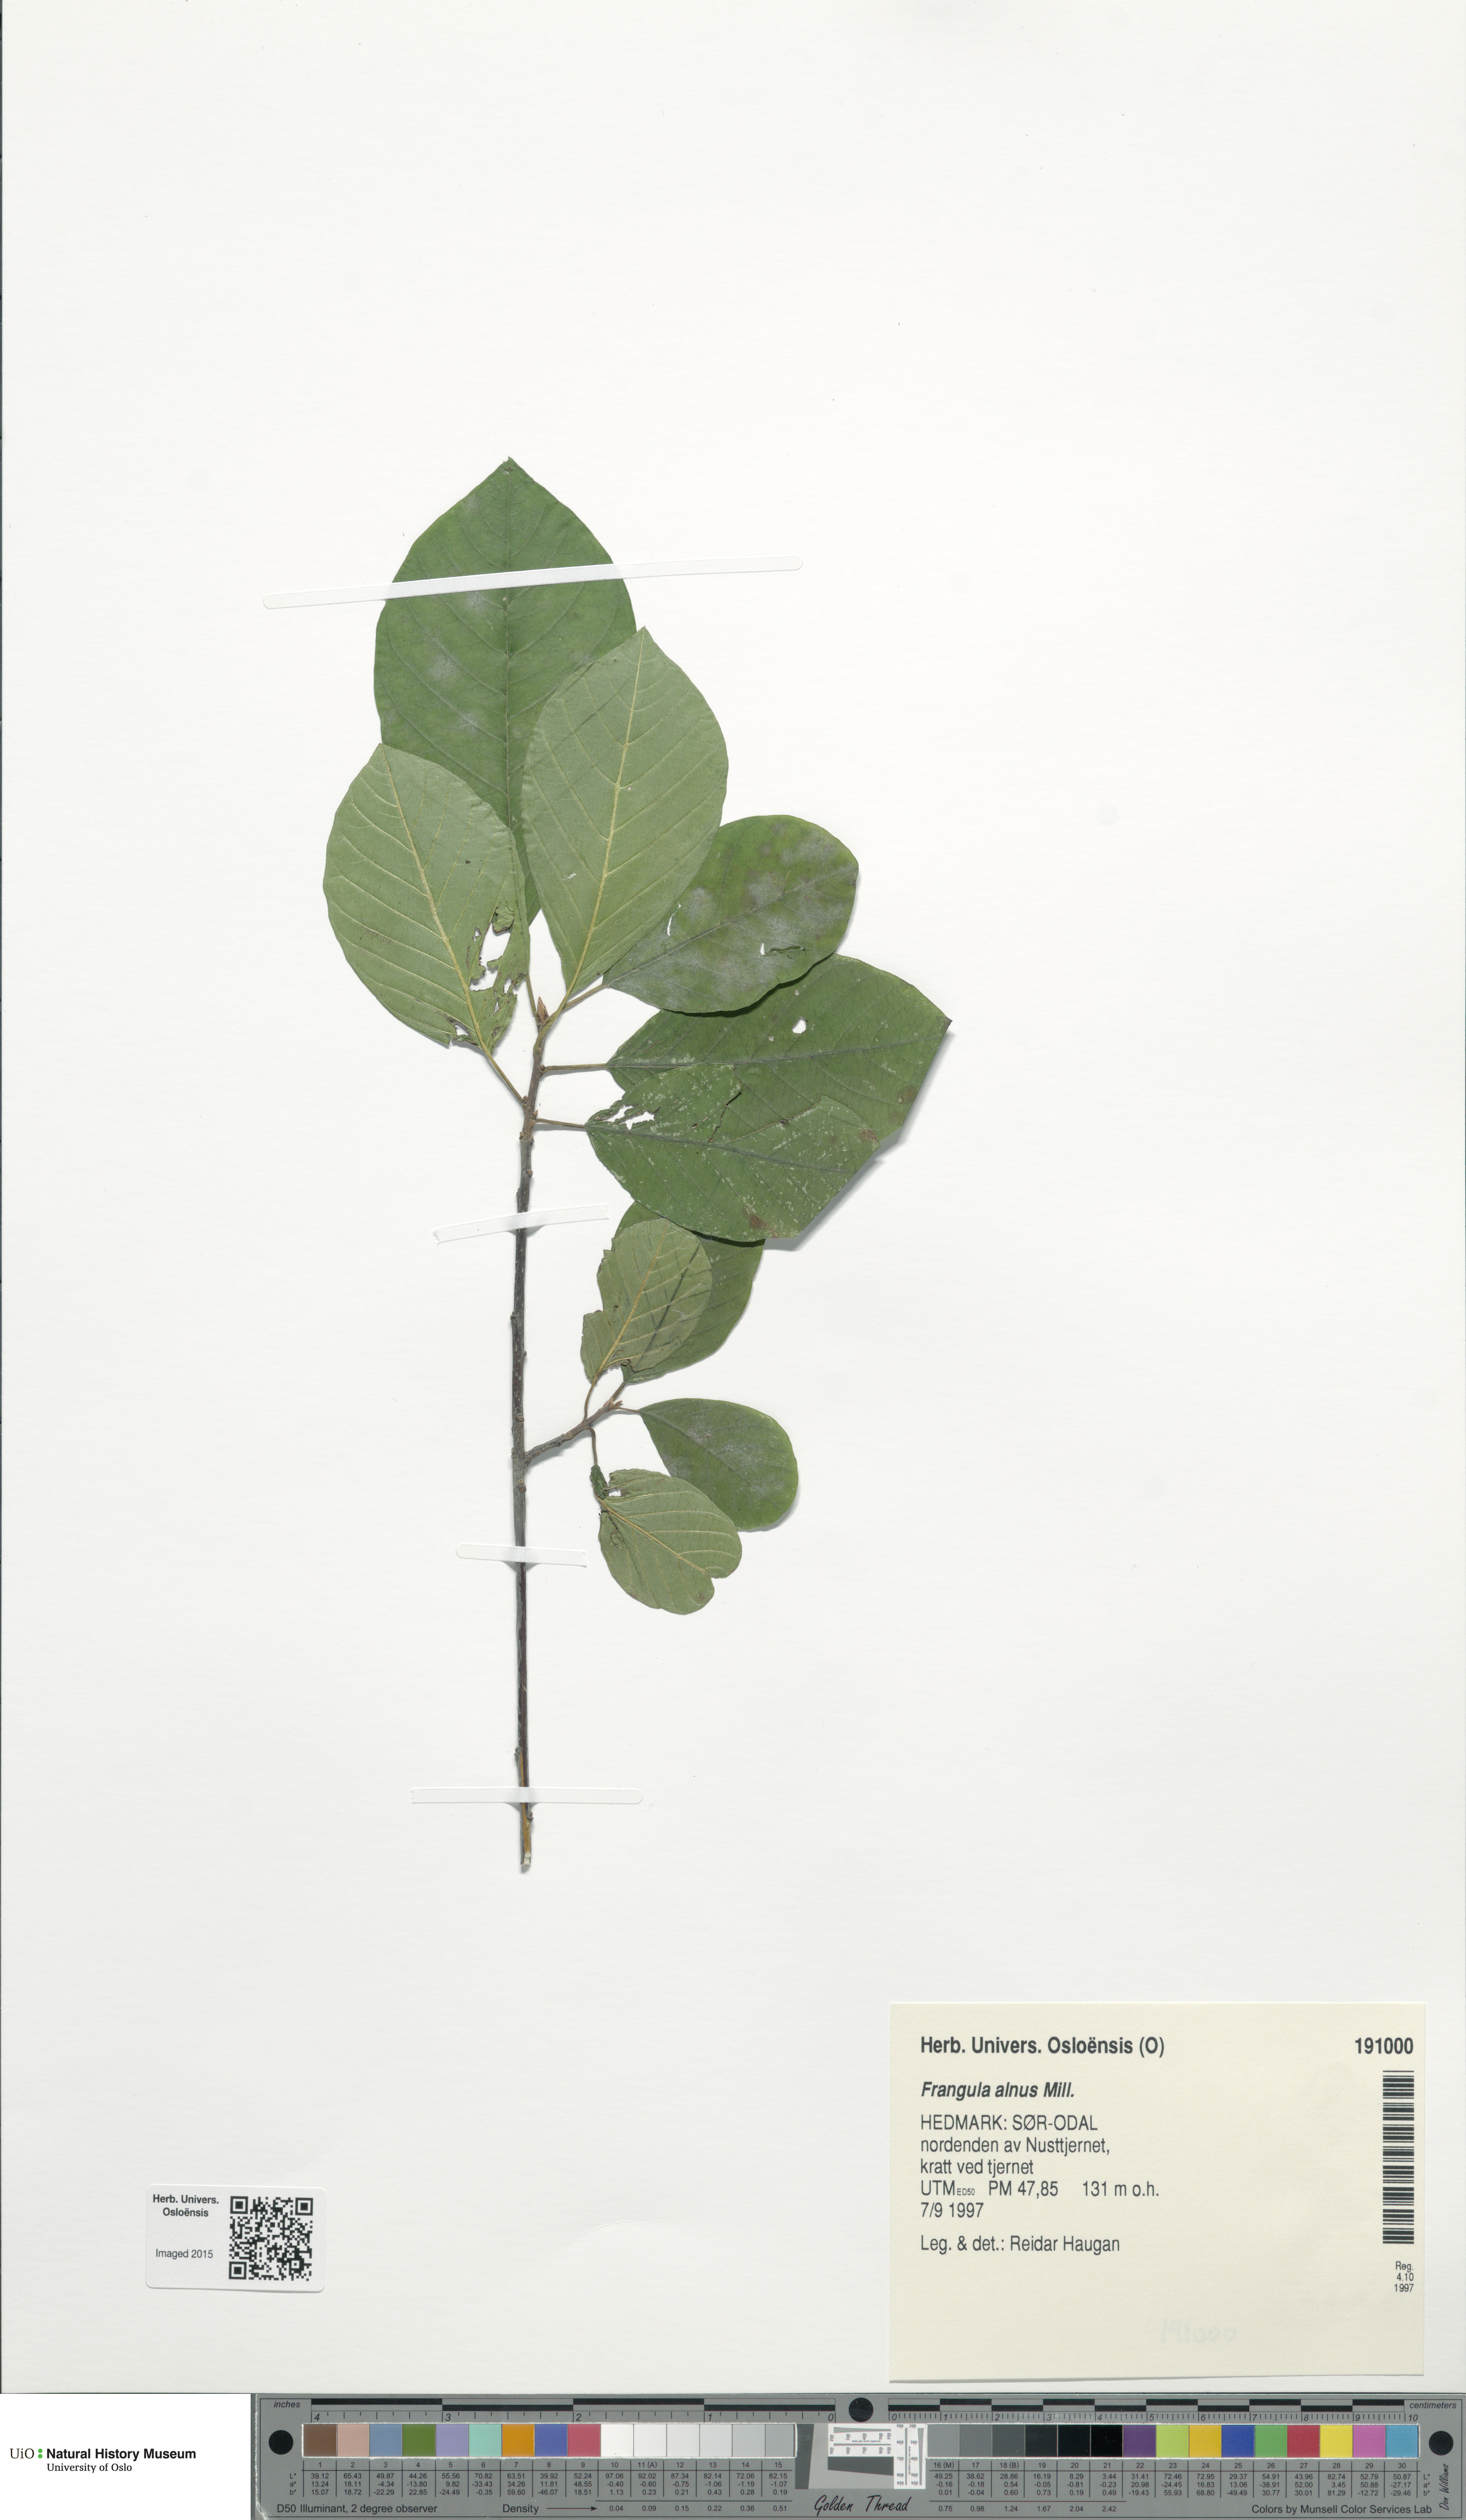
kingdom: Plantae
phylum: Tracheophyta
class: Magnoliopsida
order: Rosales
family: Rhamnaceae
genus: Frangula
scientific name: Frangula alnus
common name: Alder buckthorn
